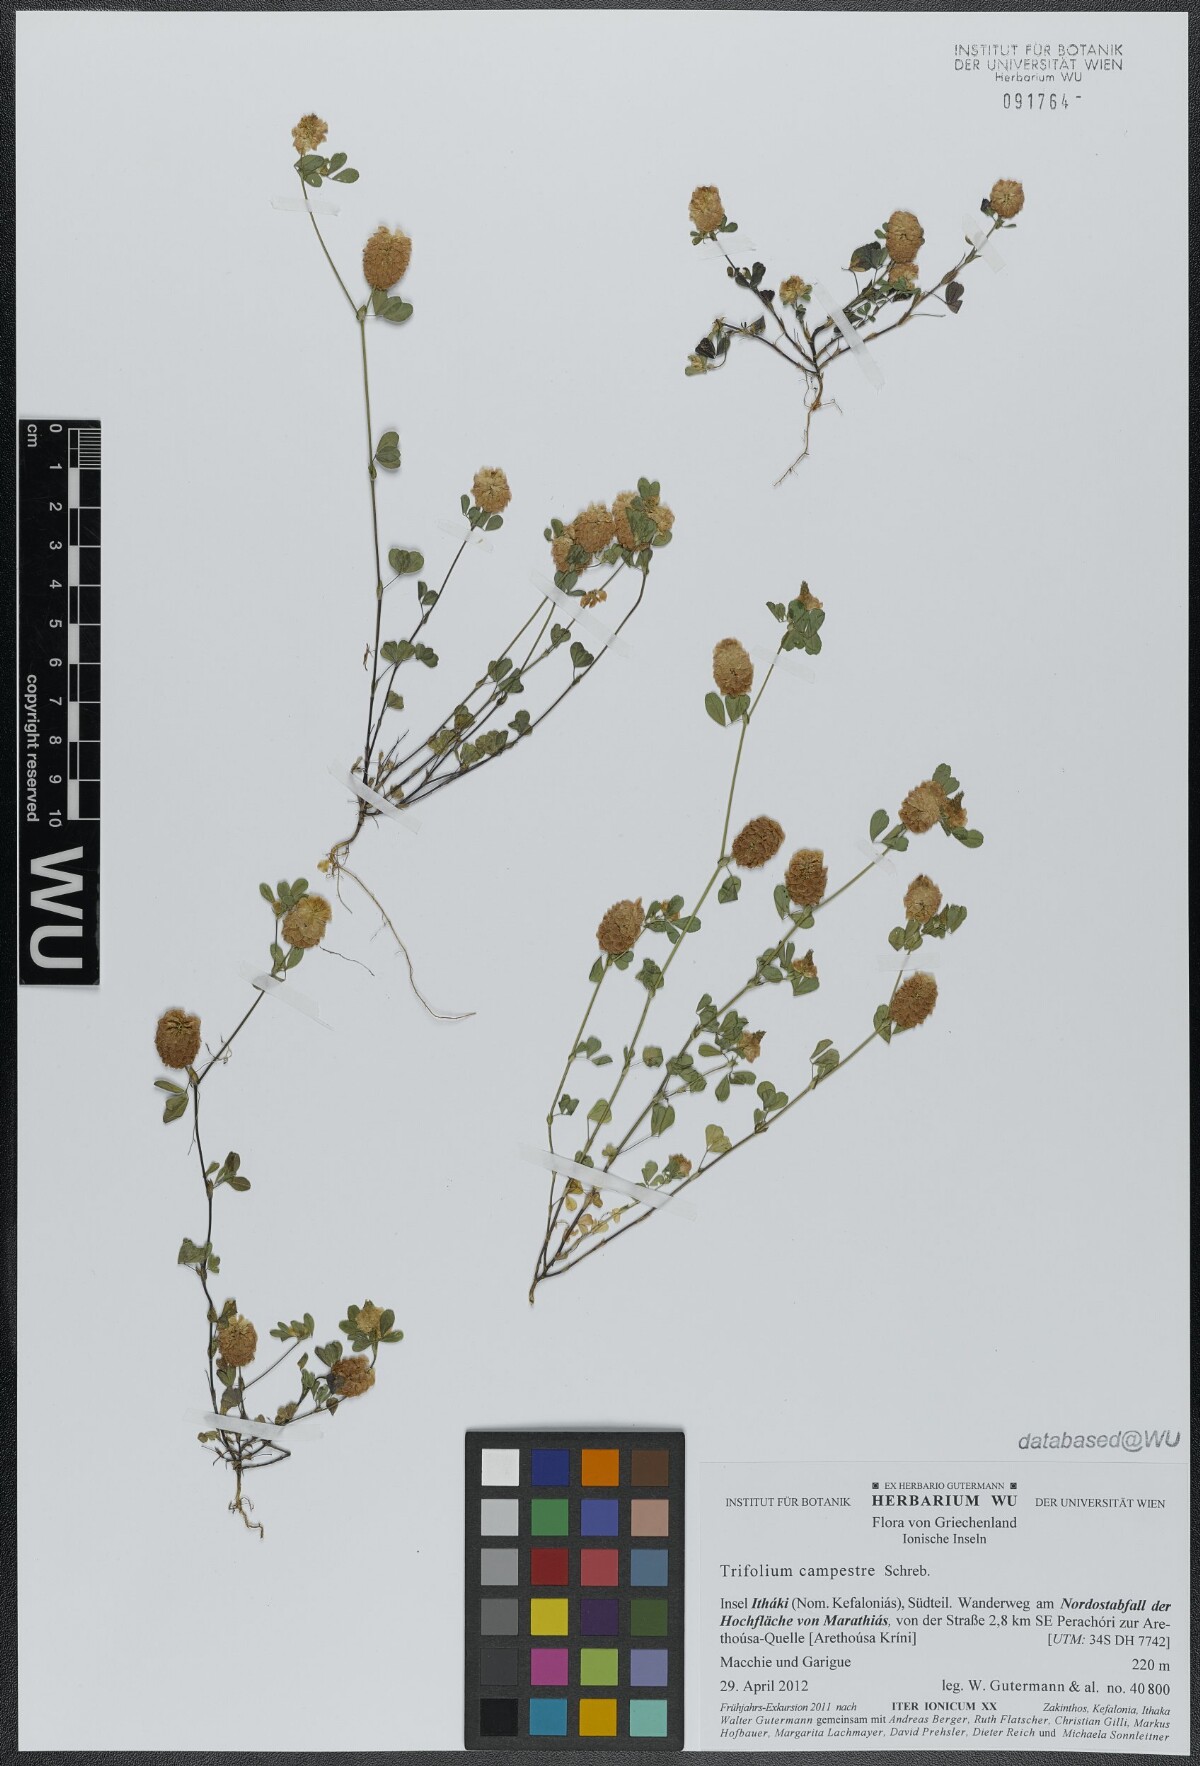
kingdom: Plantae
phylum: Tracheophyta
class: Magnoliopsida
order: Fabales
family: Fabaceae
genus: Trifolium
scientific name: Trifolium campestre
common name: Field clover
